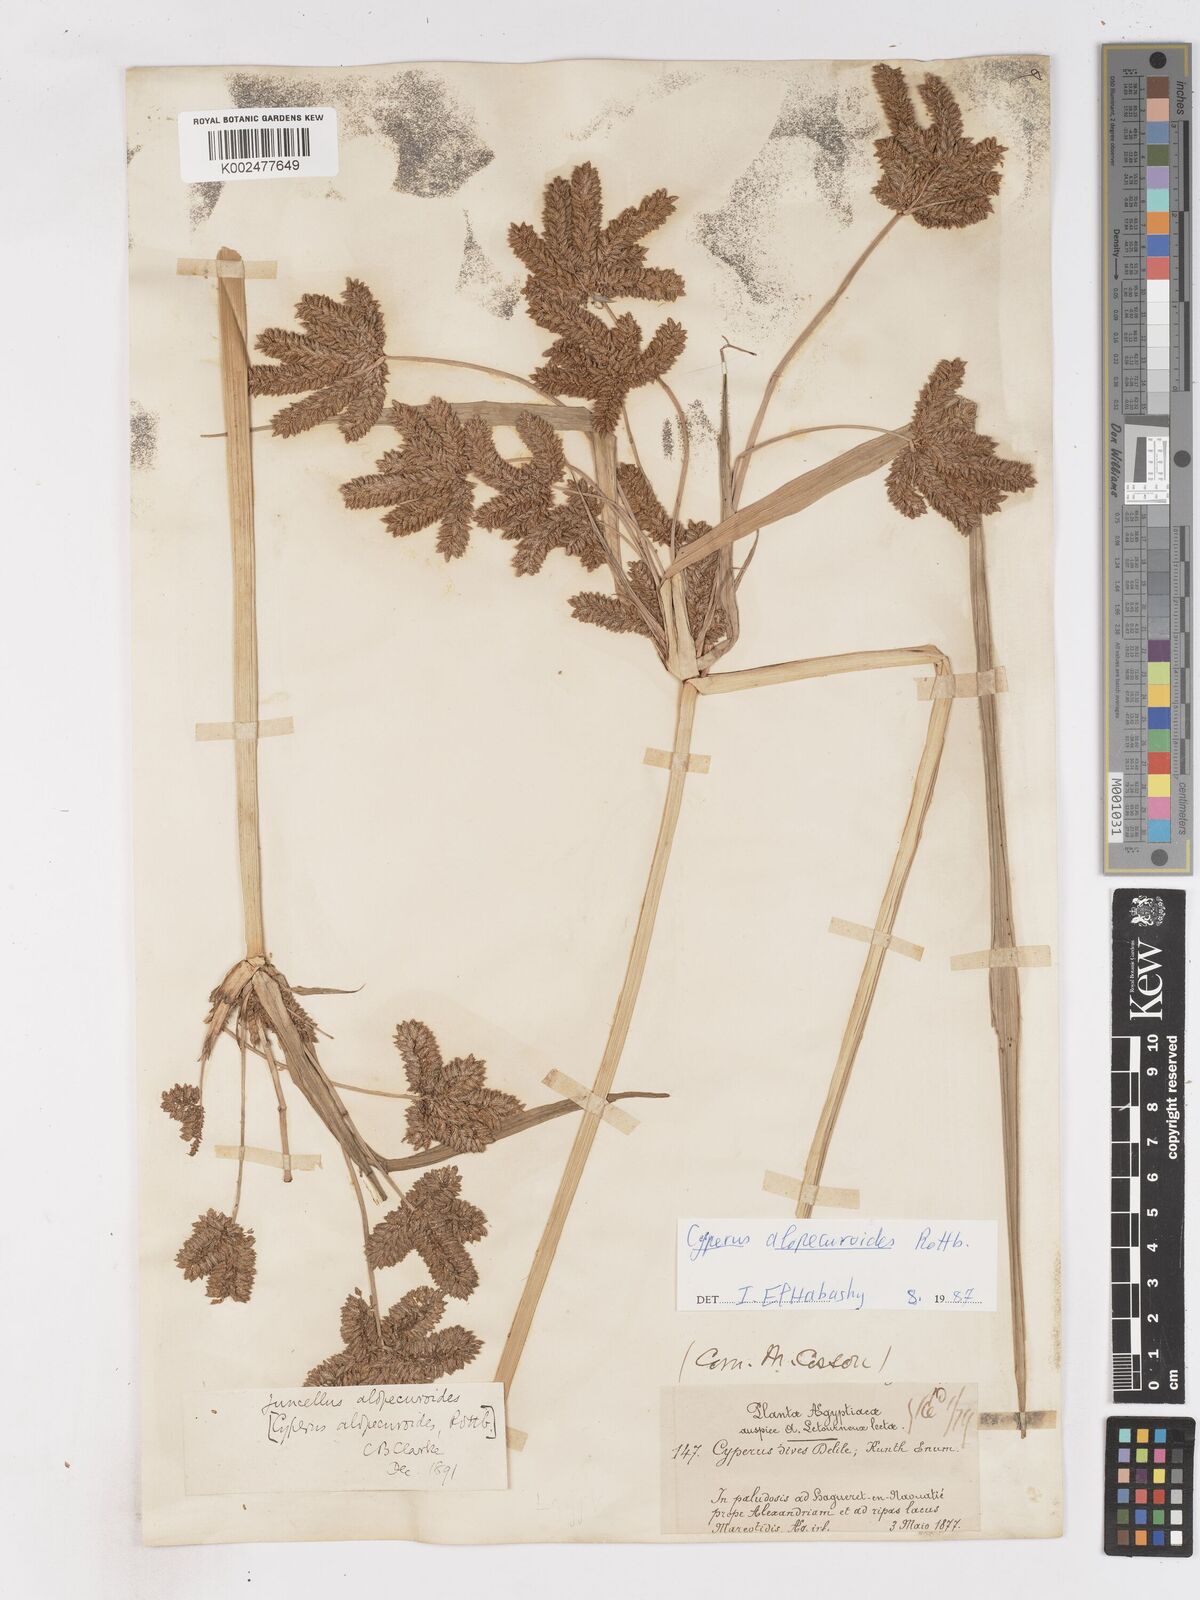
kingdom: Plantae
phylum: Tracheophyta
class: Liliopsida
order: Poales
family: Cyperaceae
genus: Cyperus
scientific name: Cyperus alopecuroides
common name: Foxtail flatsedge
